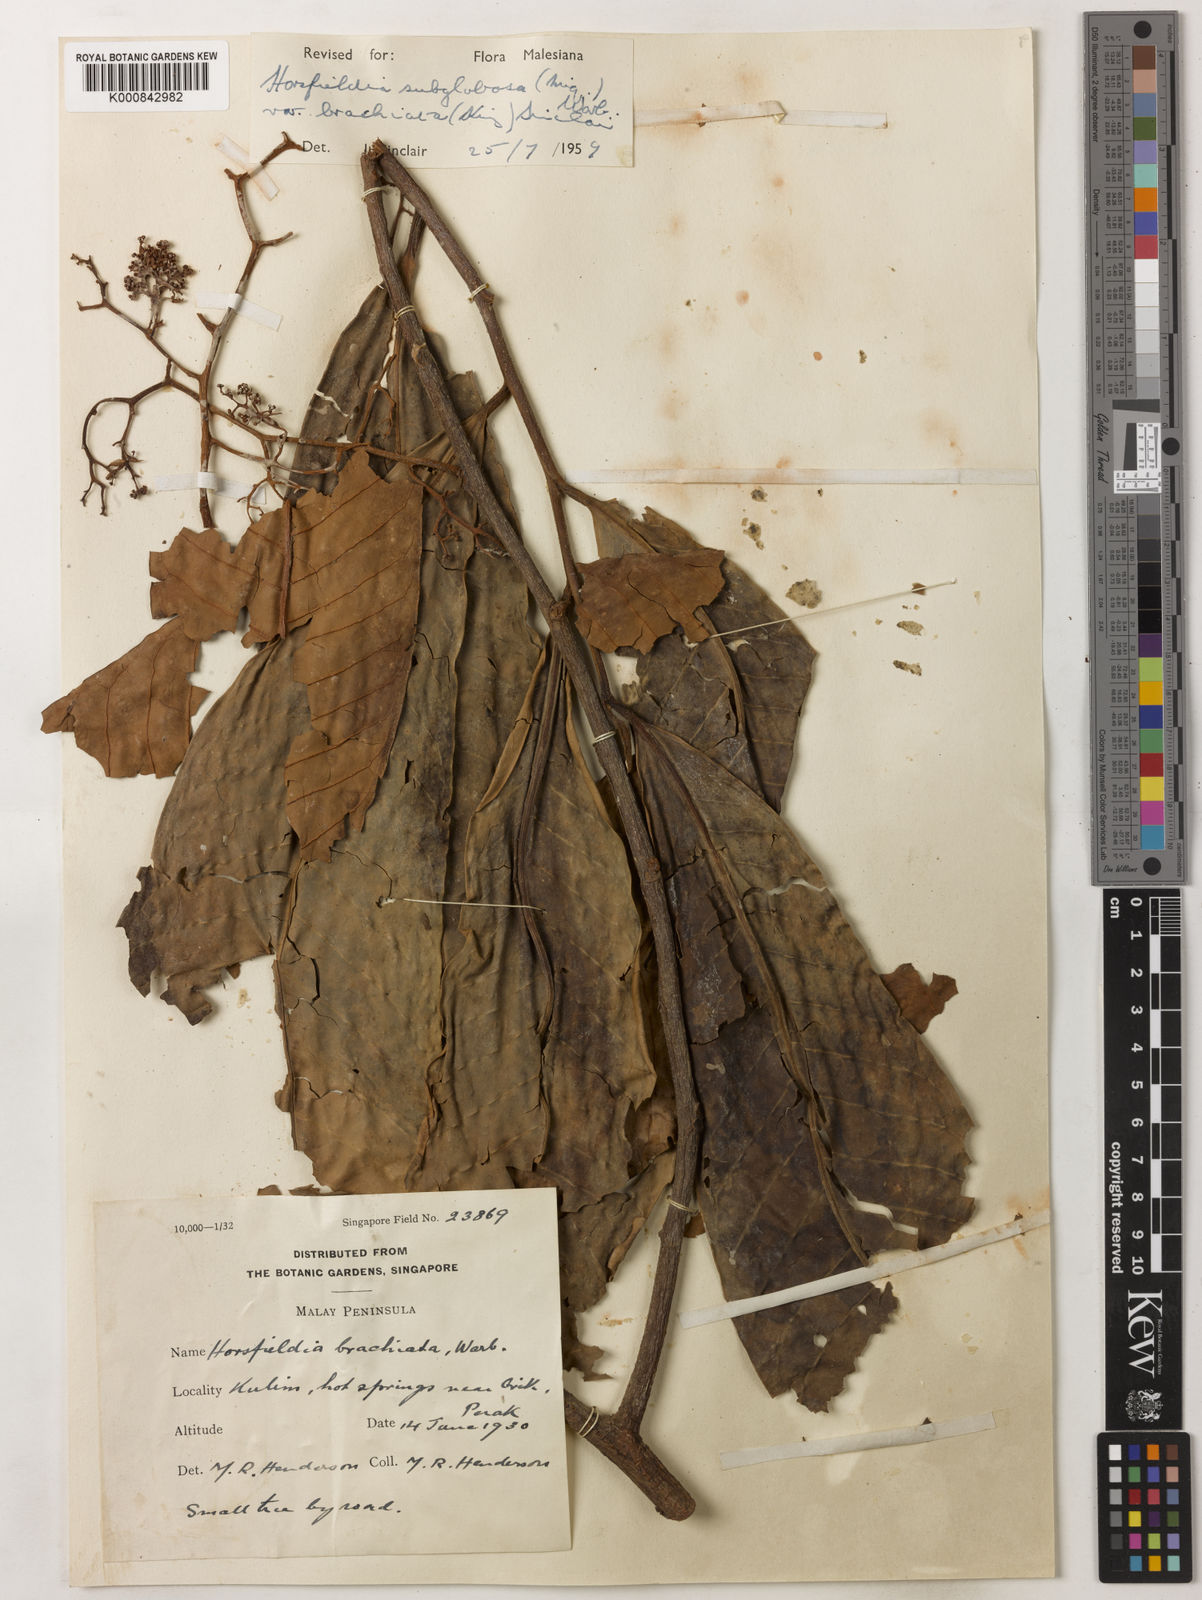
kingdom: Plantae
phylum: Tracheophyta
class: Magnoliopsida
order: Magnoliales
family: Myristicaceae
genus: Horsfieldia
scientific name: Horsfieldia brachiata
